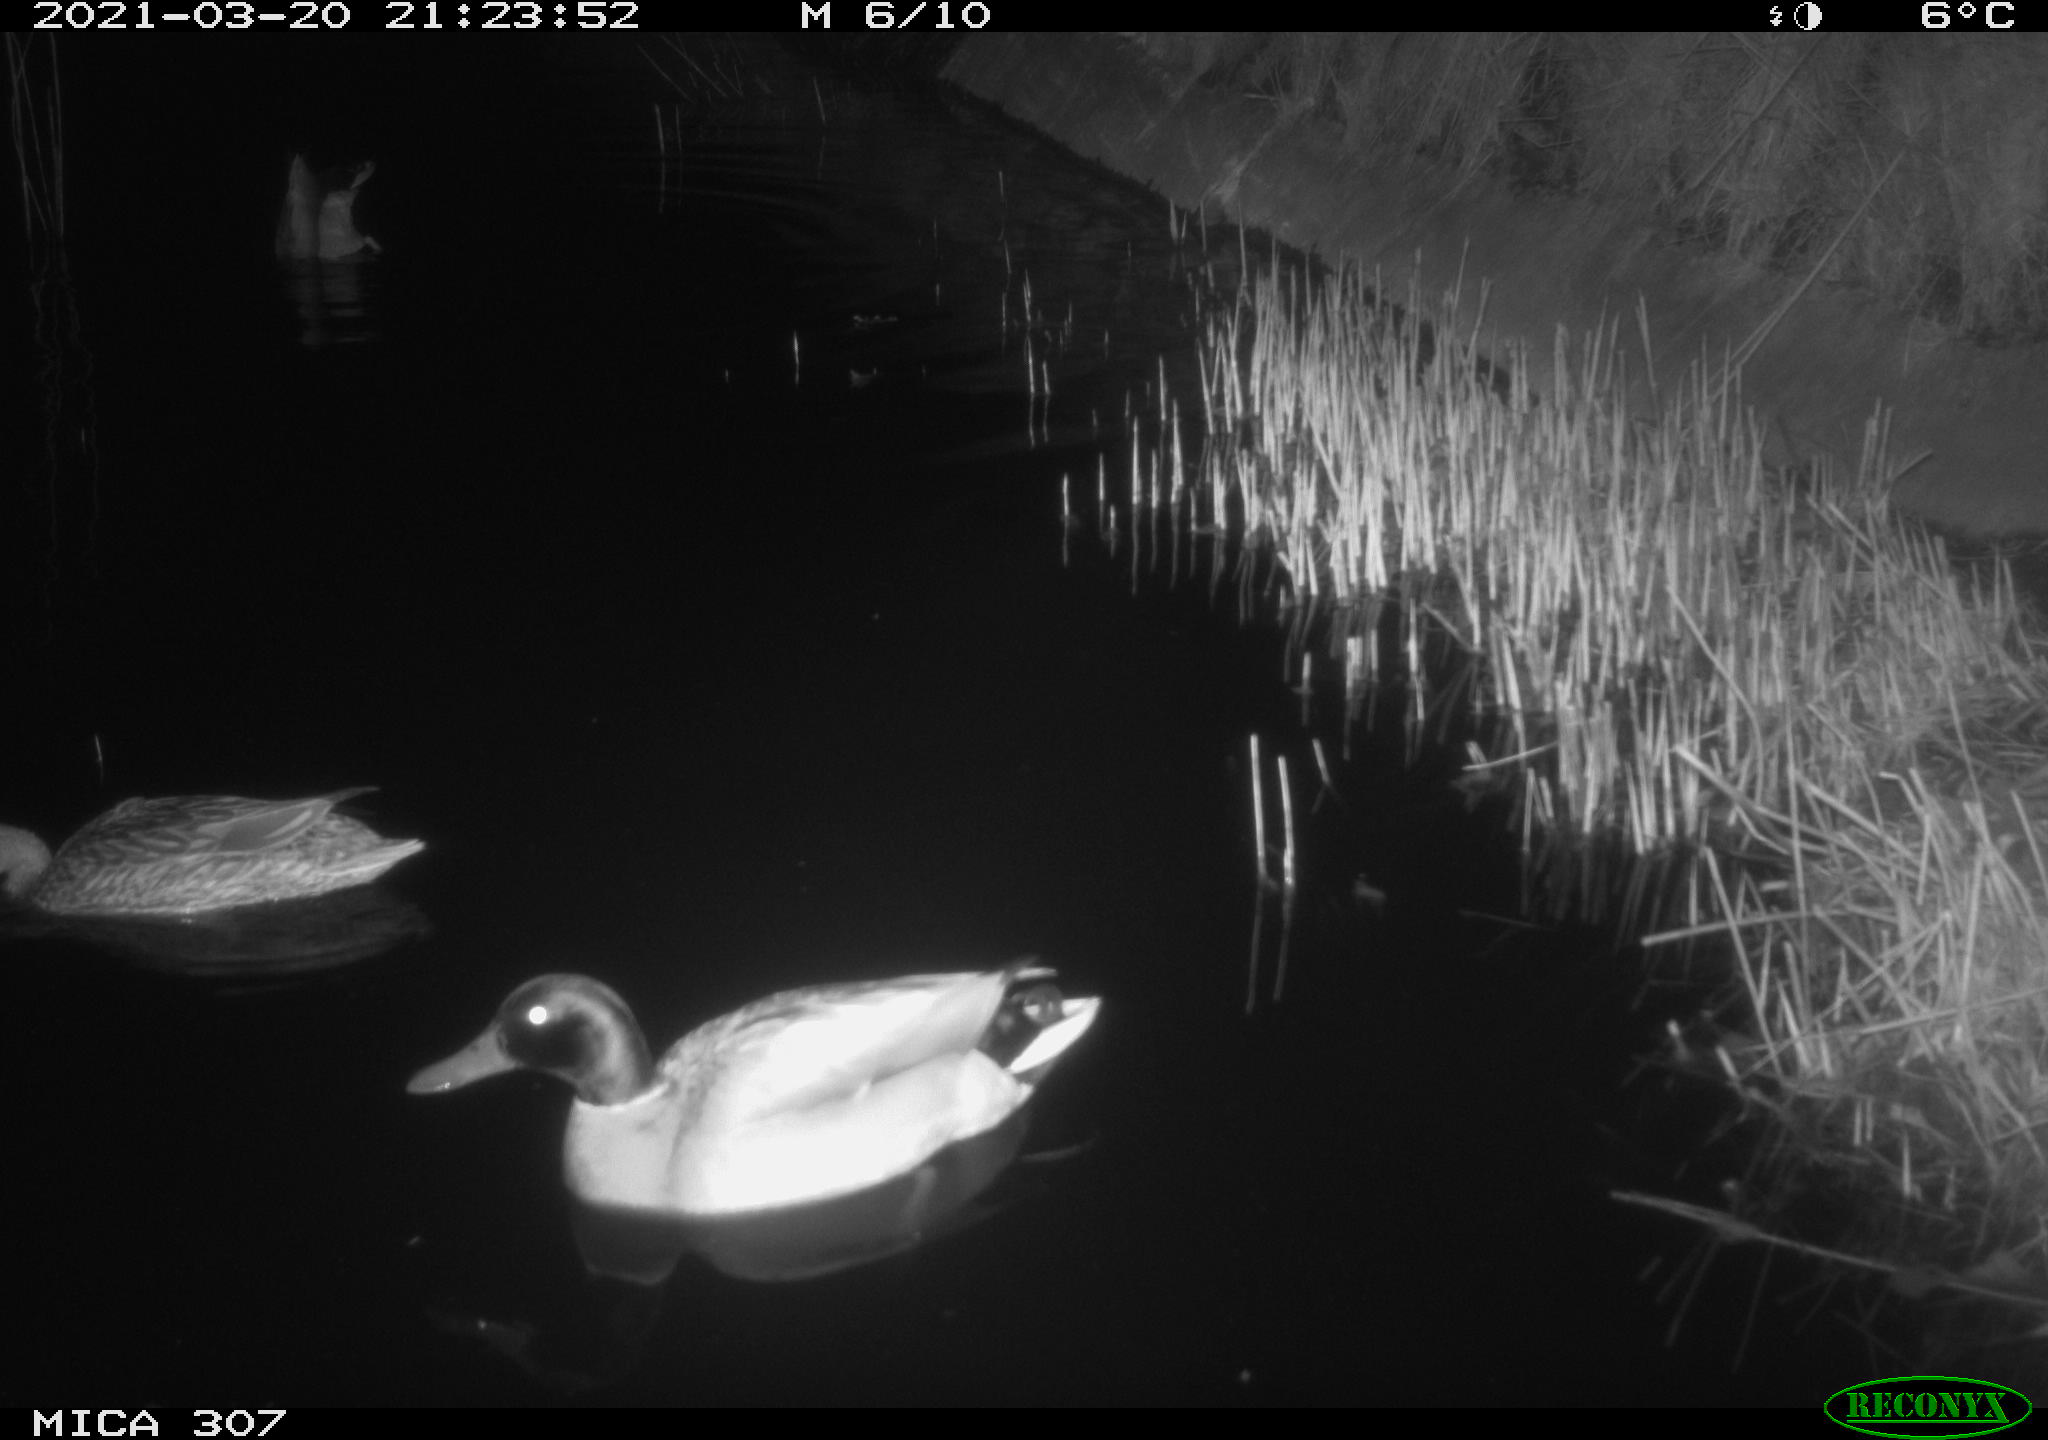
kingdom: Animalia
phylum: Chordata
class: Aves
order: Anseriformes
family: Anatidae
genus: Anas
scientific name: Anas platyrhynchos
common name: Mallard
